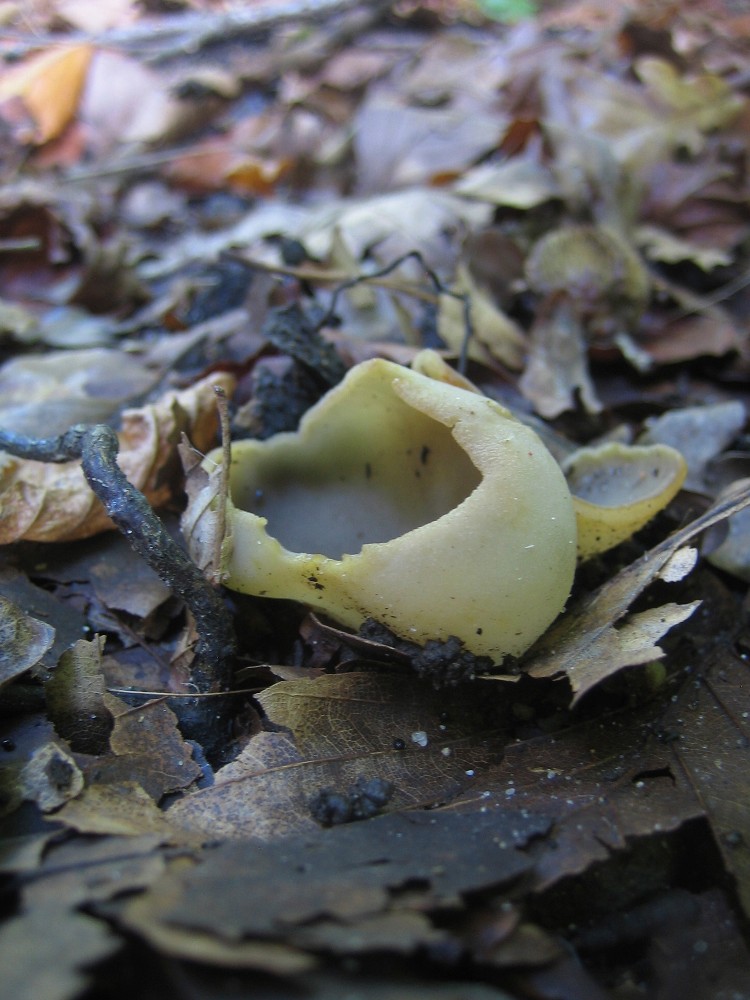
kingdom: Fungi
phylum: Ascomycota
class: Pezizomycetes
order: Pezizales
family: Pezizaceae
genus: Paragalactinia
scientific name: Paragalactinia succosa
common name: gulmælket bægersvamp
